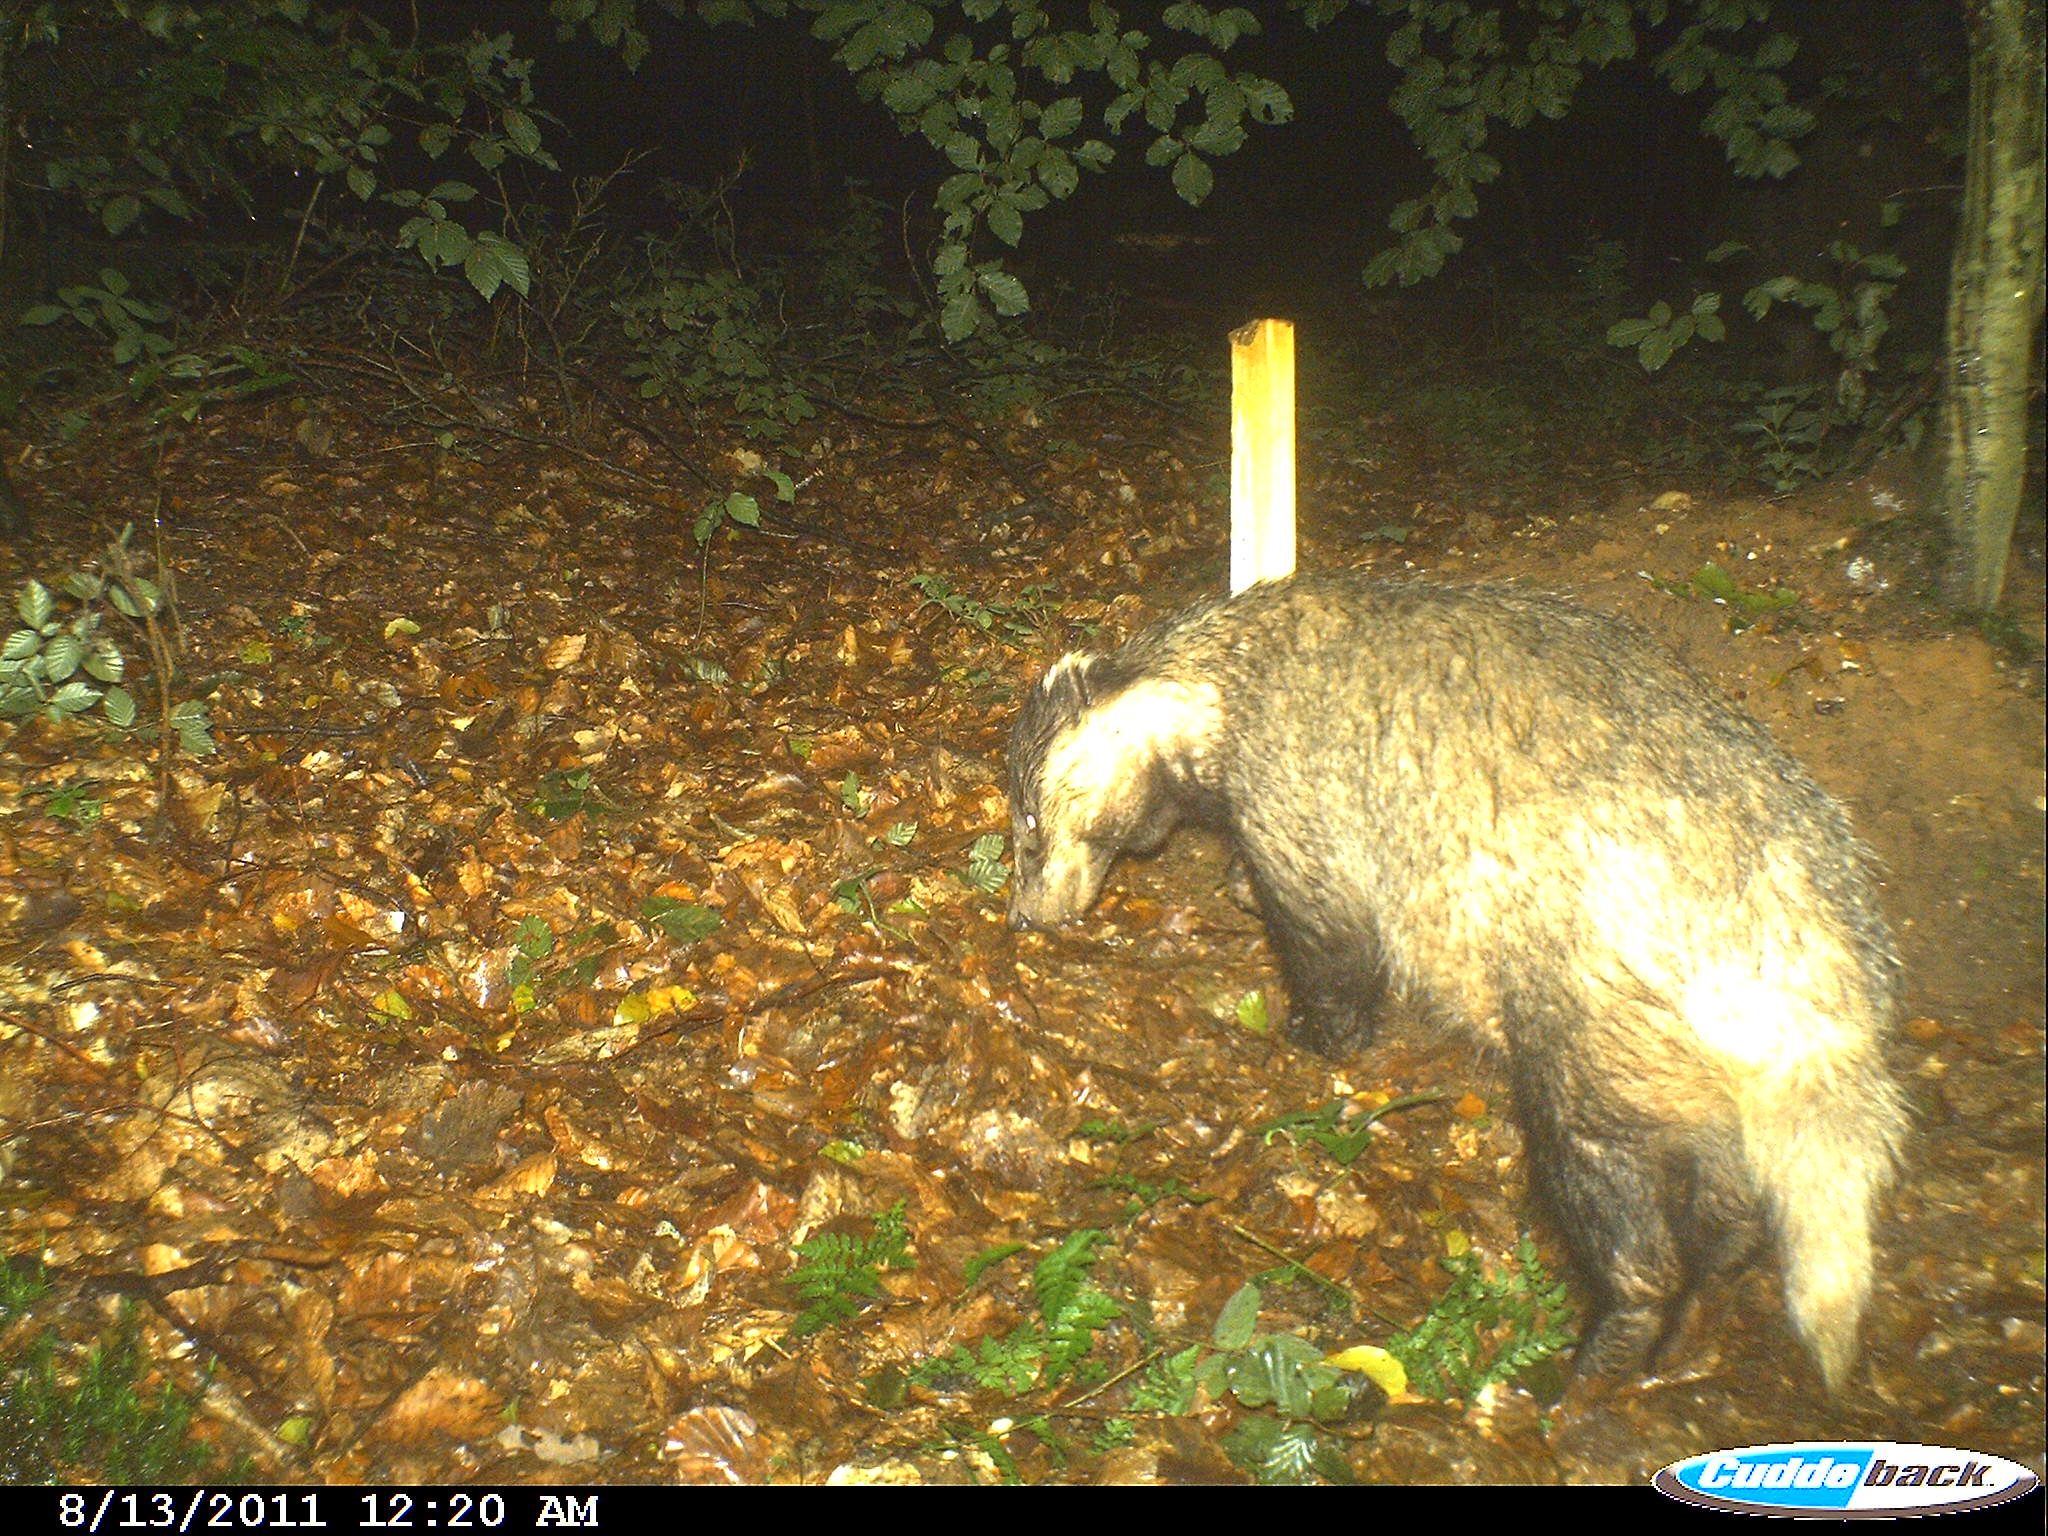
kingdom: Animalia
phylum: Chordata
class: Mammalia
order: Carnivora
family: Mustelidae
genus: Meles
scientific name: Meles meles
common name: Eurasian badger
